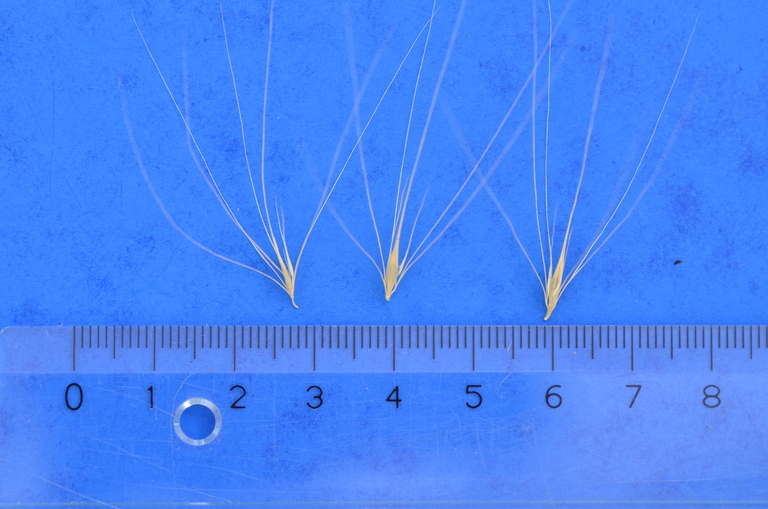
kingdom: Plantae
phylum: Tracheophyta
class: Liliopsida
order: Poales
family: Poaceae
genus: Hordeum
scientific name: Hordeum lechleri
